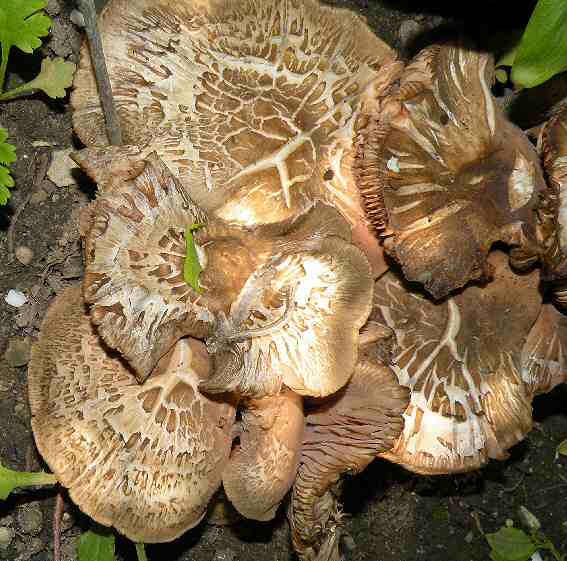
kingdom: Fungi
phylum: Basidiomycota
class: Agaricomycetes
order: Agaricales
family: Entolomataceae
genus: Entoloma
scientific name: Entoloma clypeatum
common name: flammet rødblad
